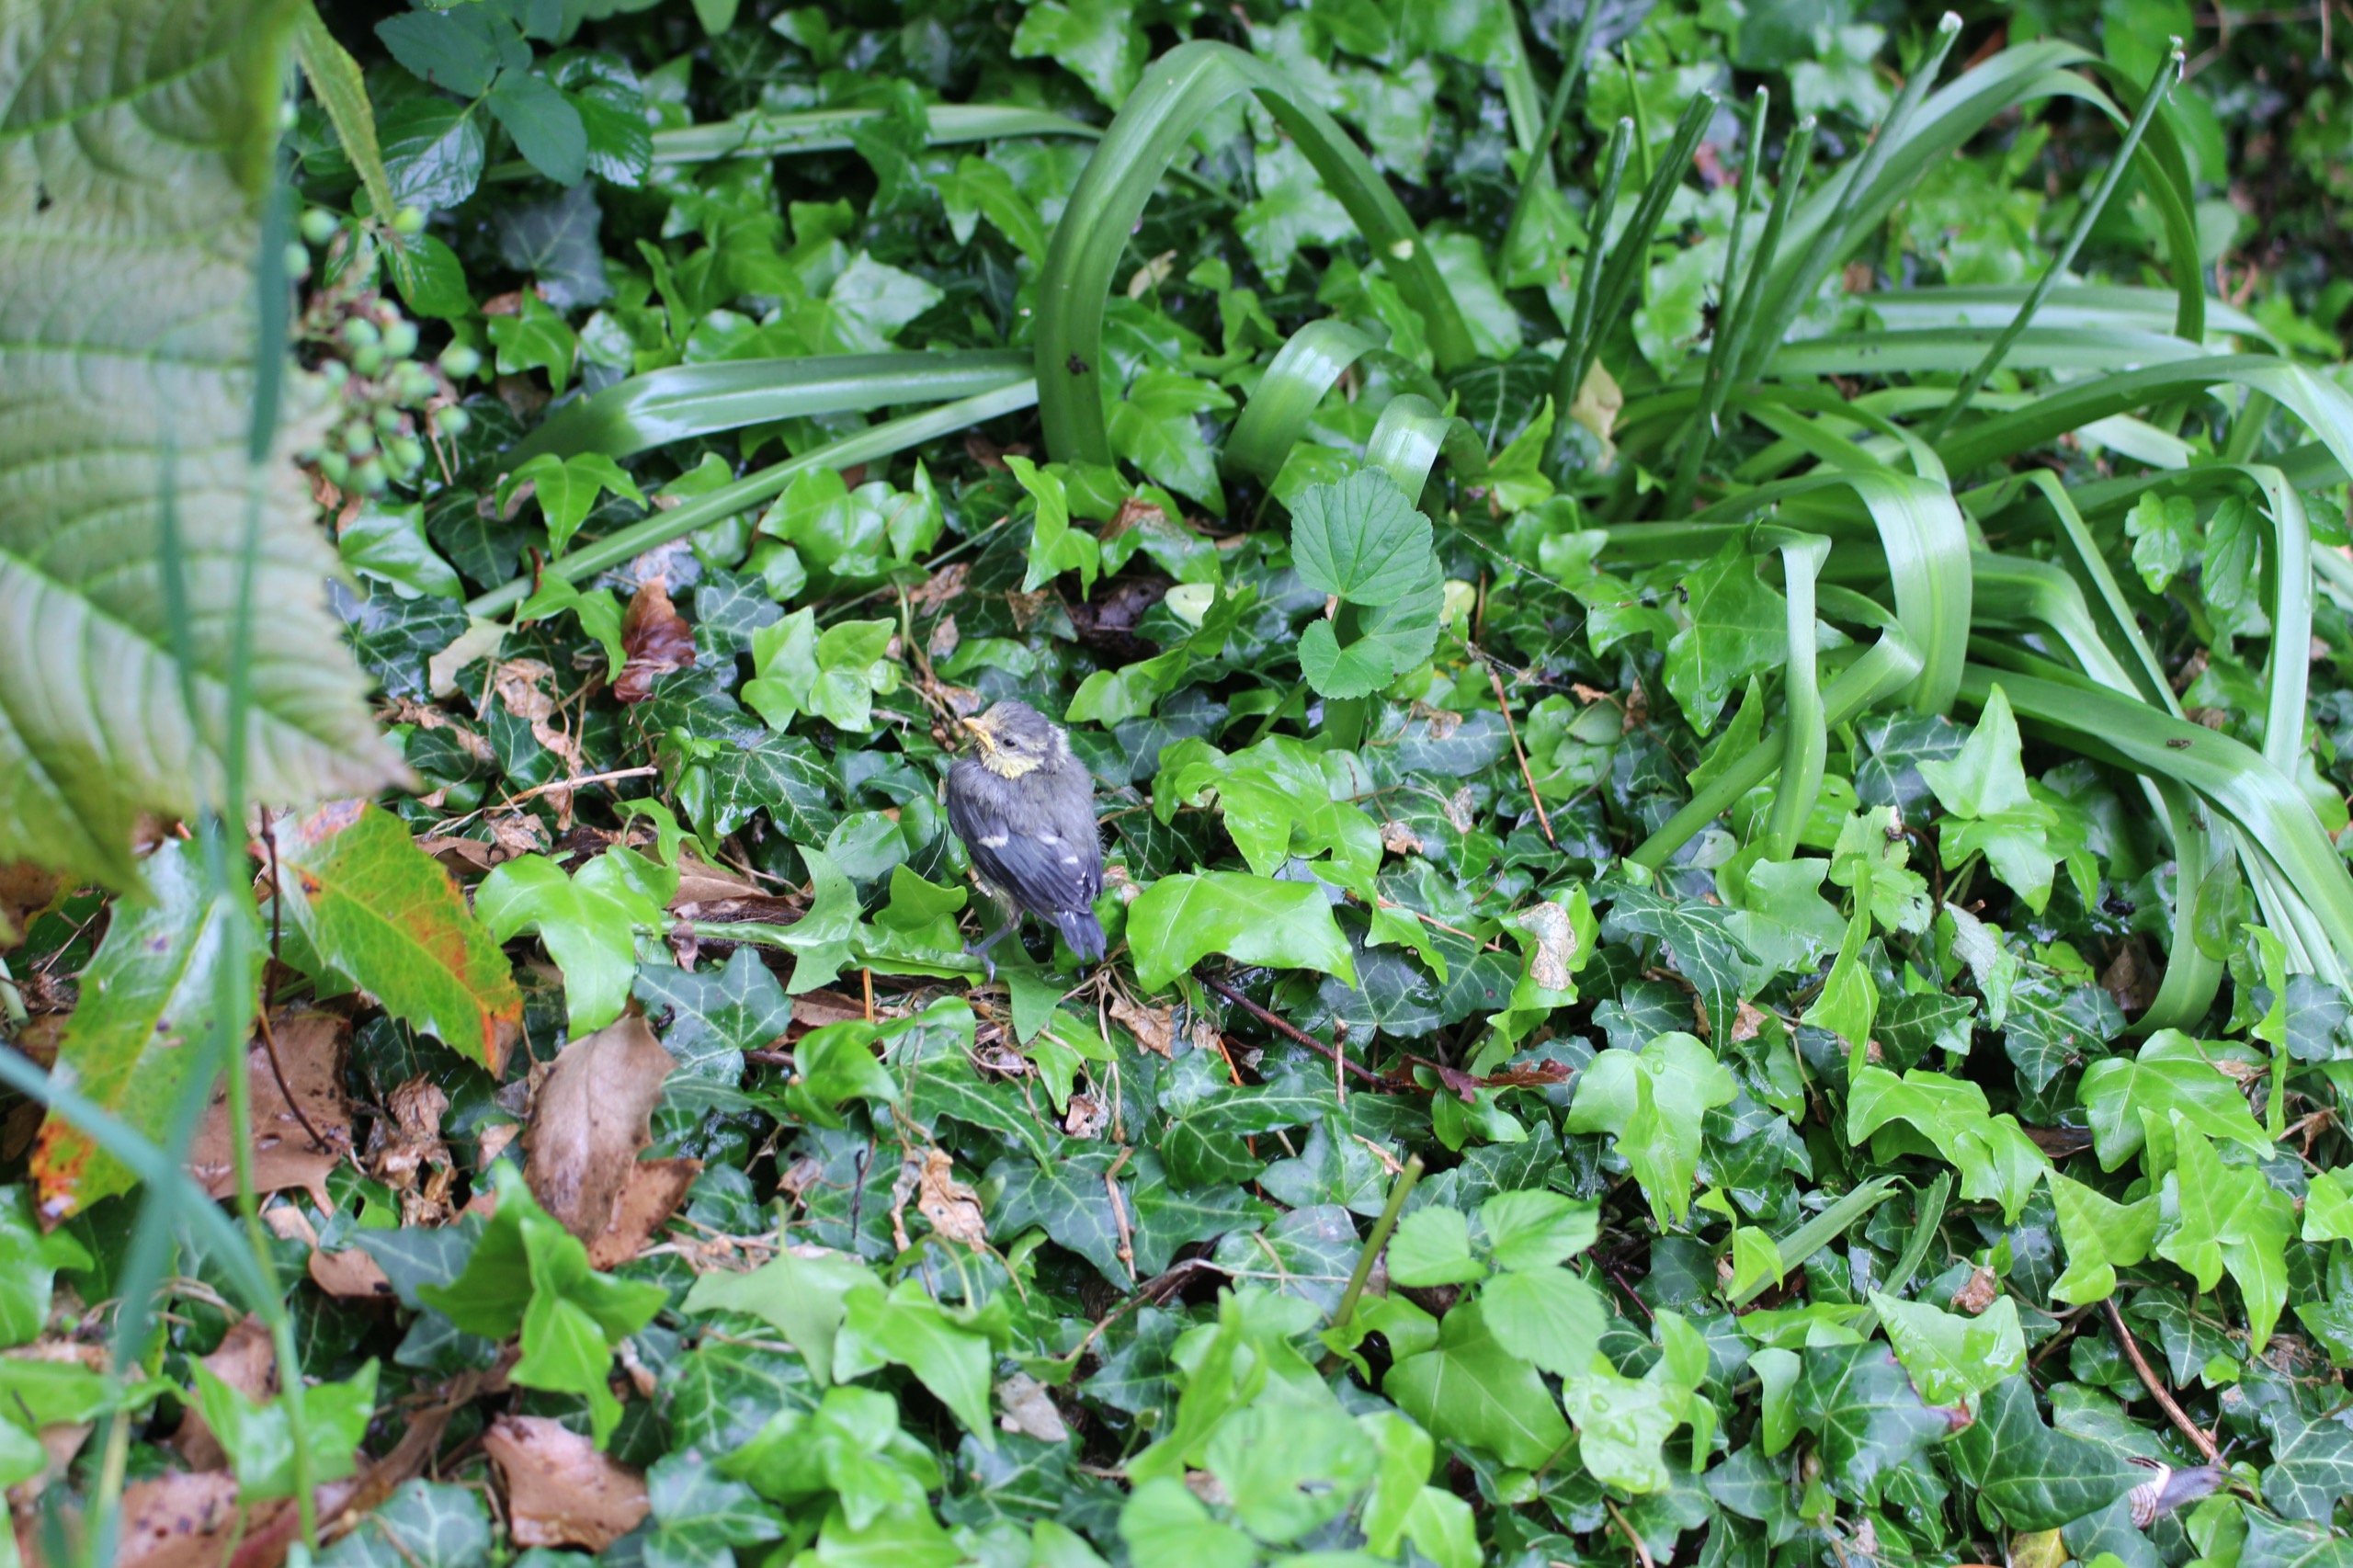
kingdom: Animalia
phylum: Chordata
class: Aves
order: Passeriformes
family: Paridae
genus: Cyanistes
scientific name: Cyanistes caeruleus
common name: Blåmejse
